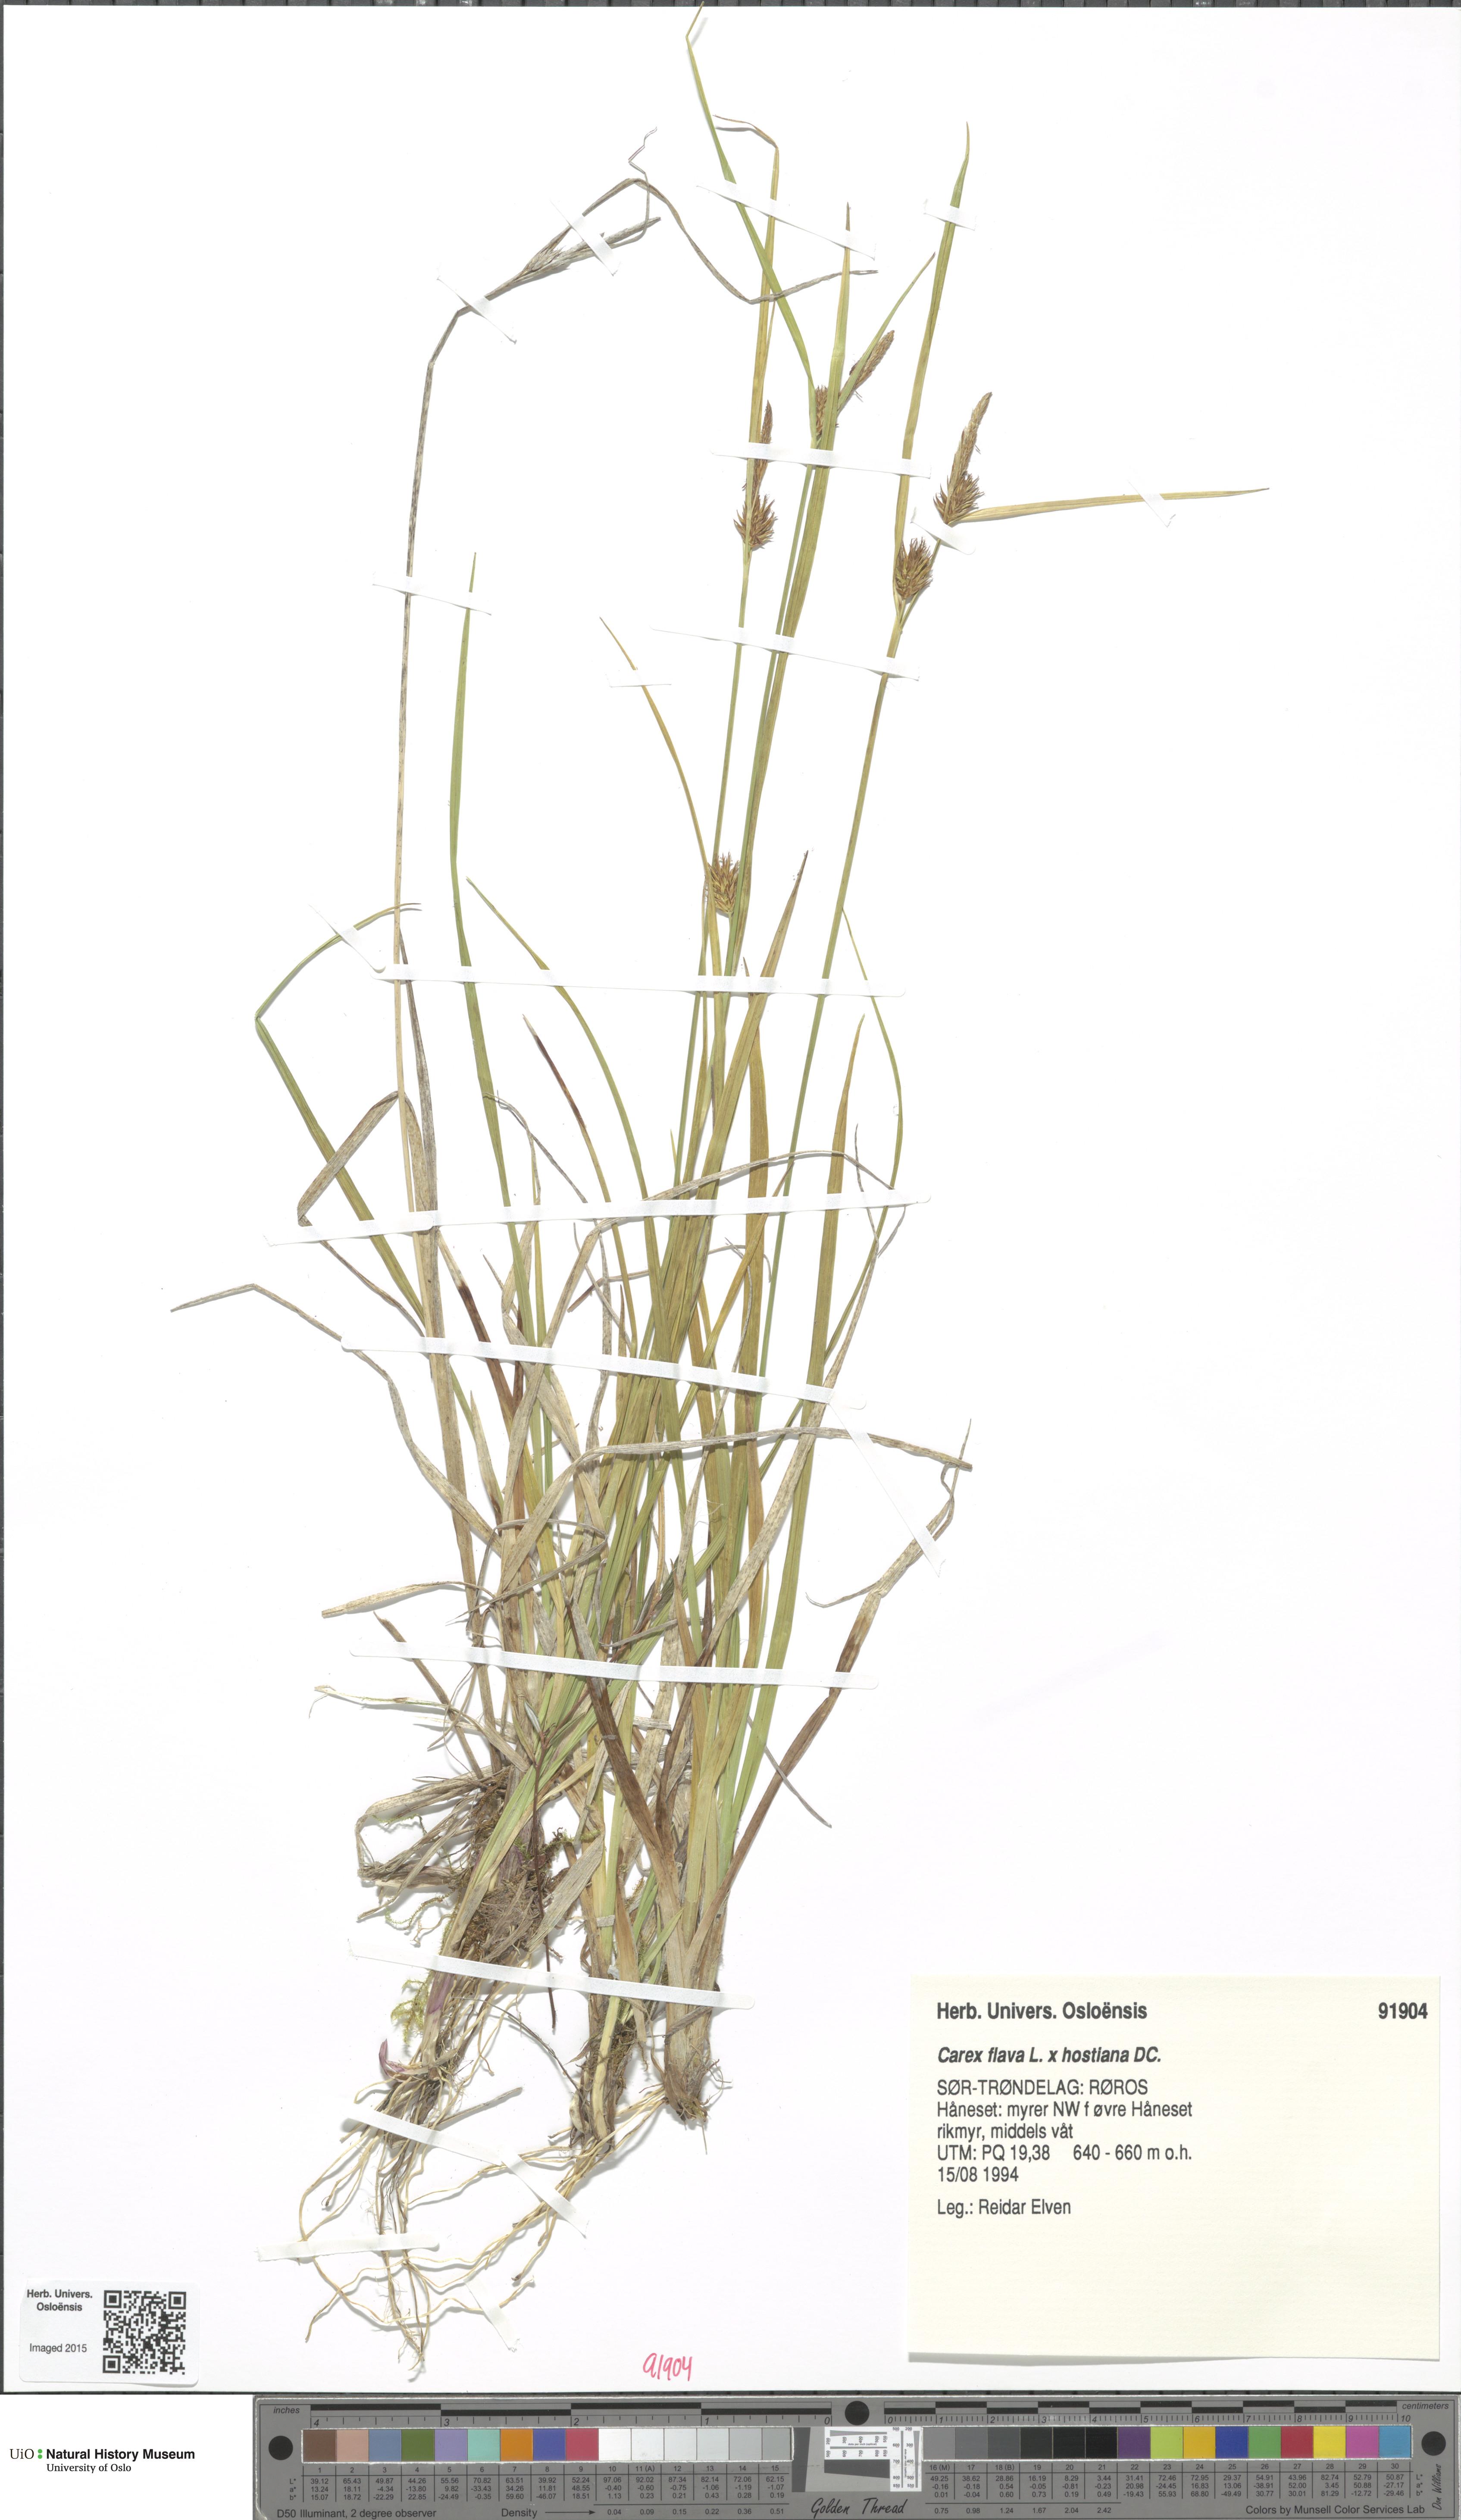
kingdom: Plantae
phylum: Tracheophyta
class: Liliopsida
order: Poales
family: Cyperaceae
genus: Carex
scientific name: Carex
